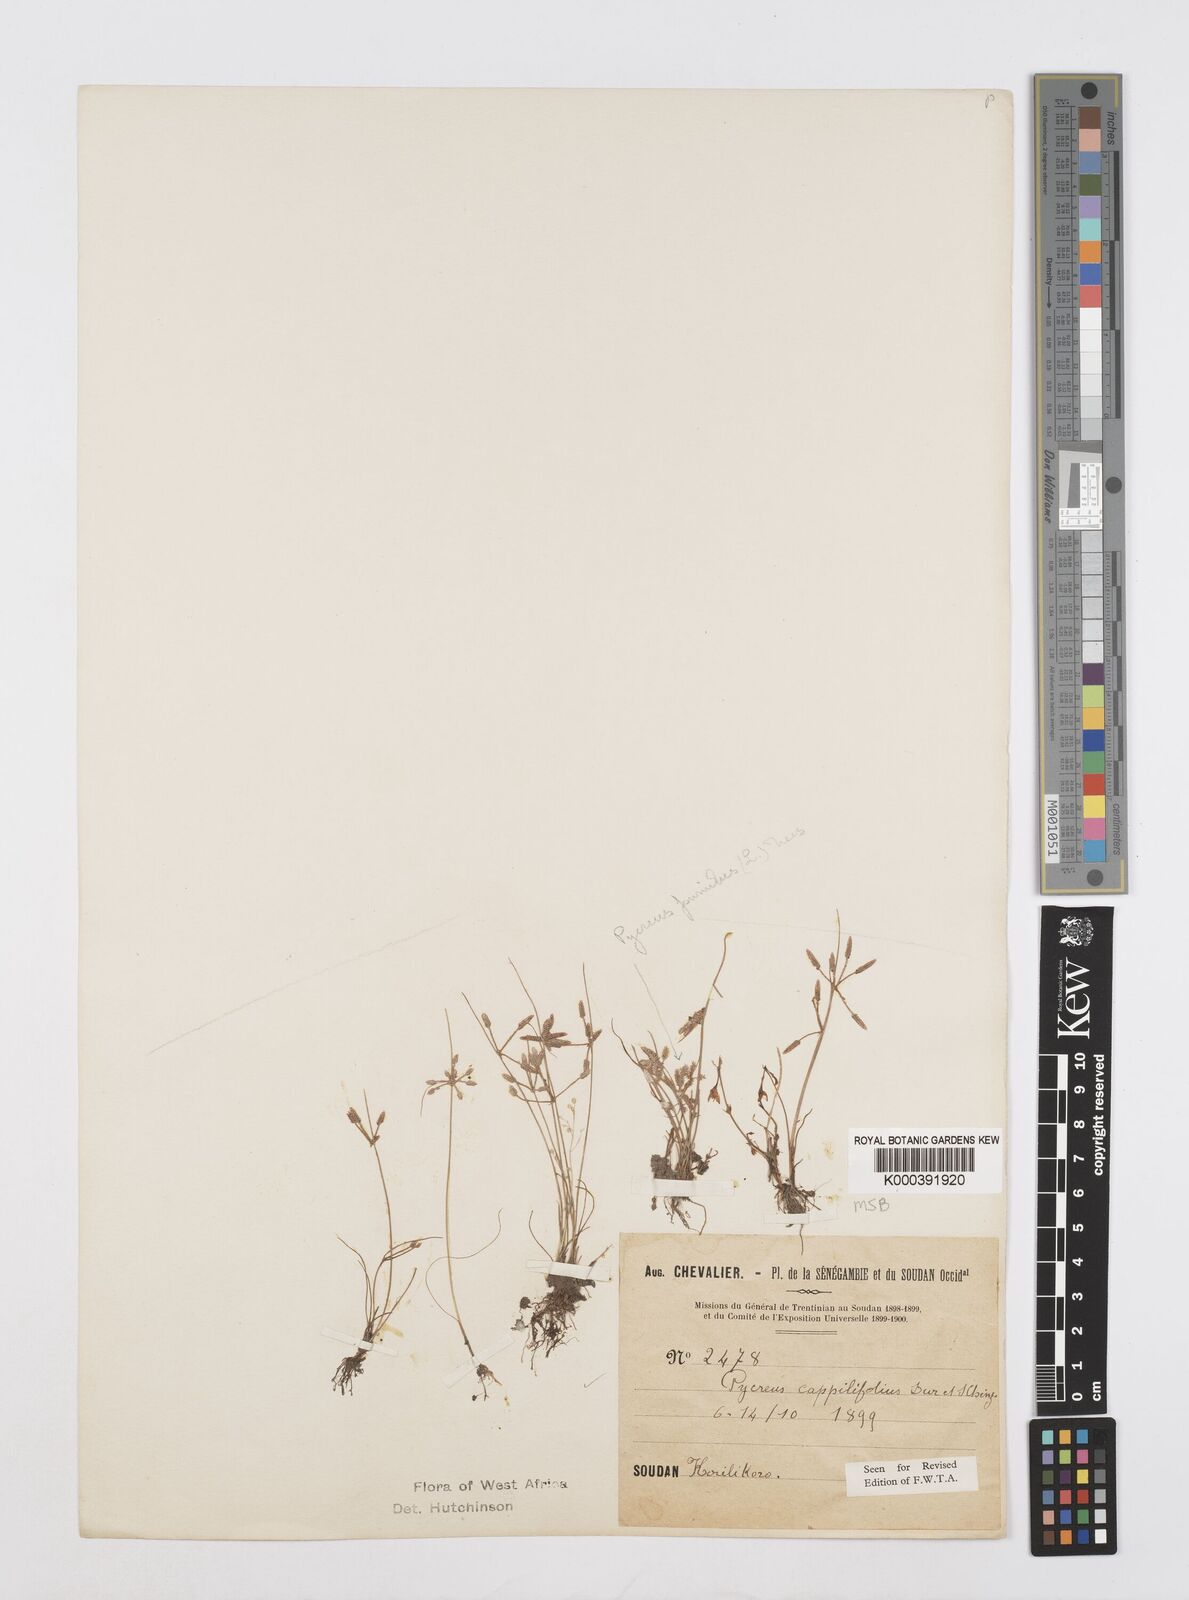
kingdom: Plantae
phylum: Tracheophyta
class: Liliopsida
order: Poales
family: Cyperaceae
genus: Cyperus
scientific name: Cyperus capillifolius
